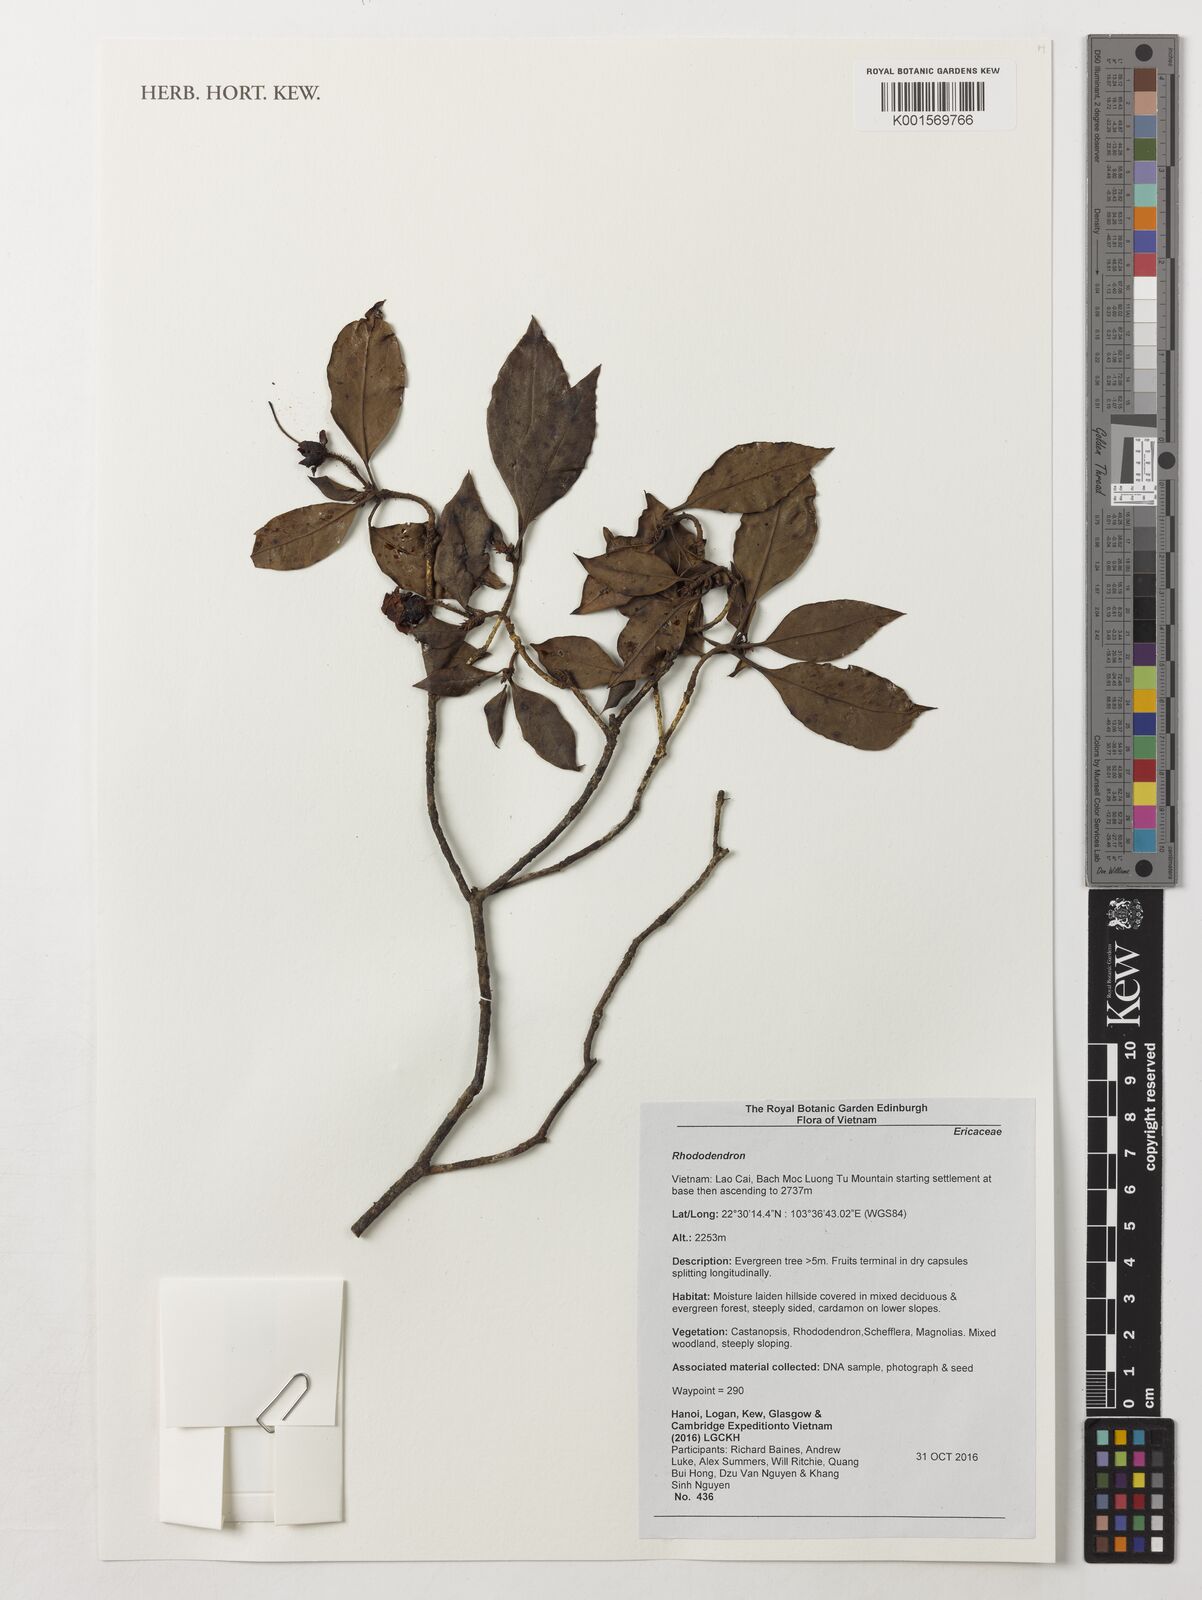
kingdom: Plantae
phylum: Tracheophyta
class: Magnoliopsida
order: Ericales
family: Ericaceae
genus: Rhododendron
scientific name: Rhododendron
